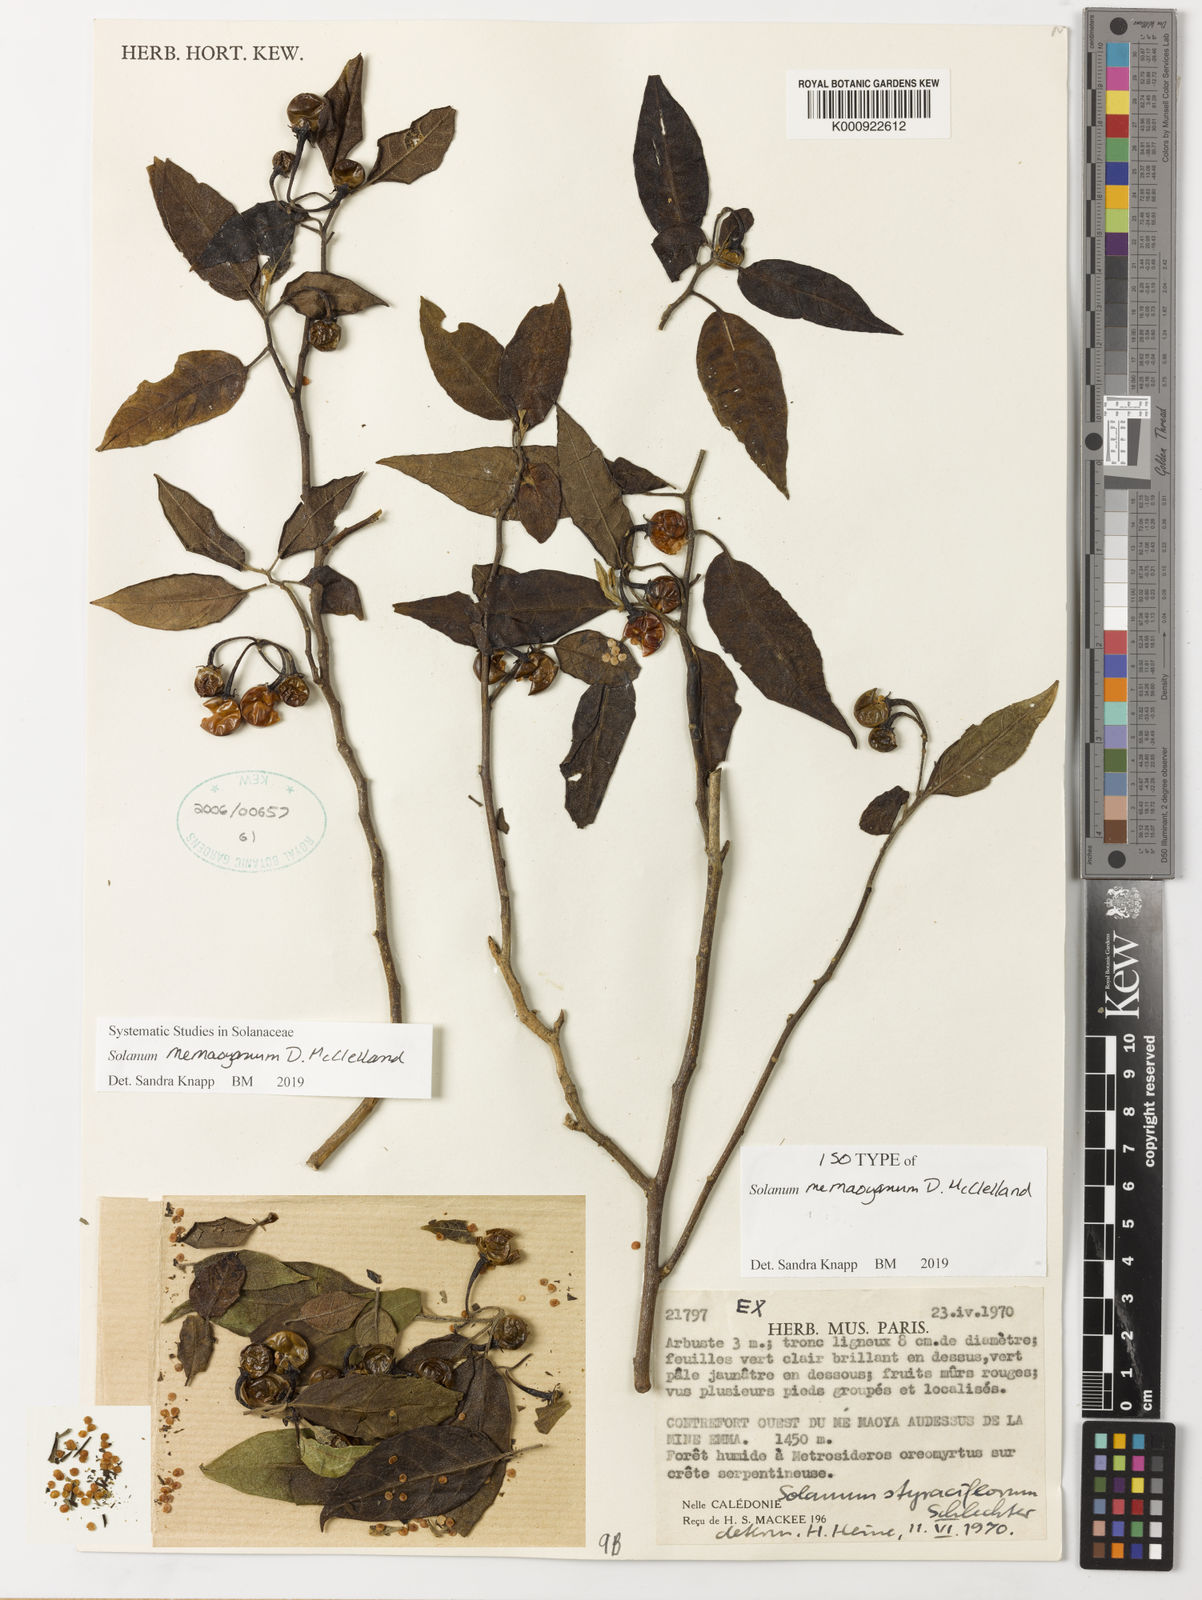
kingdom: Plantae
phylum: Tracheophyta
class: Magnoliopsida
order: Solanales
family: Solanaceae
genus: Solanum
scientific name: Solanum
